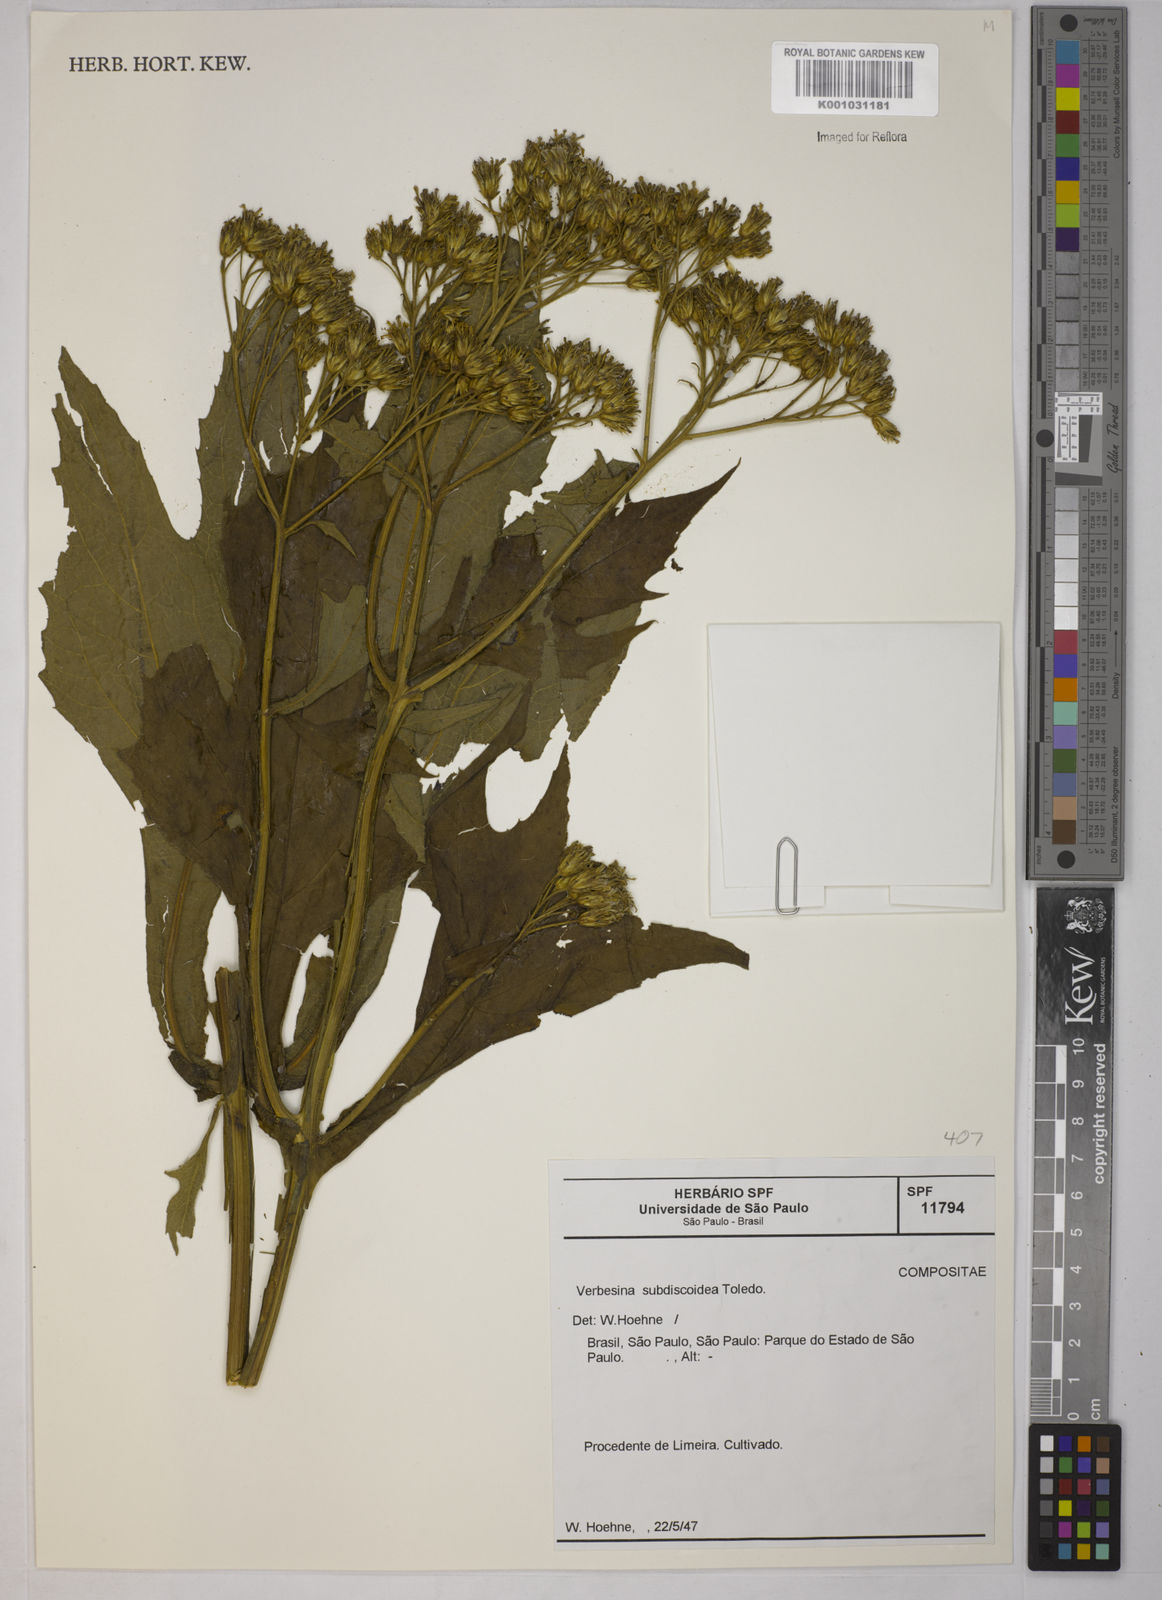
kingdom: Plantae
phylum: Tracheophyta
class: Magnoliopsida
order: Asterales
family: Asteraceae
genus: Verbesina
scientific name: Verbesina subdiscoidea
